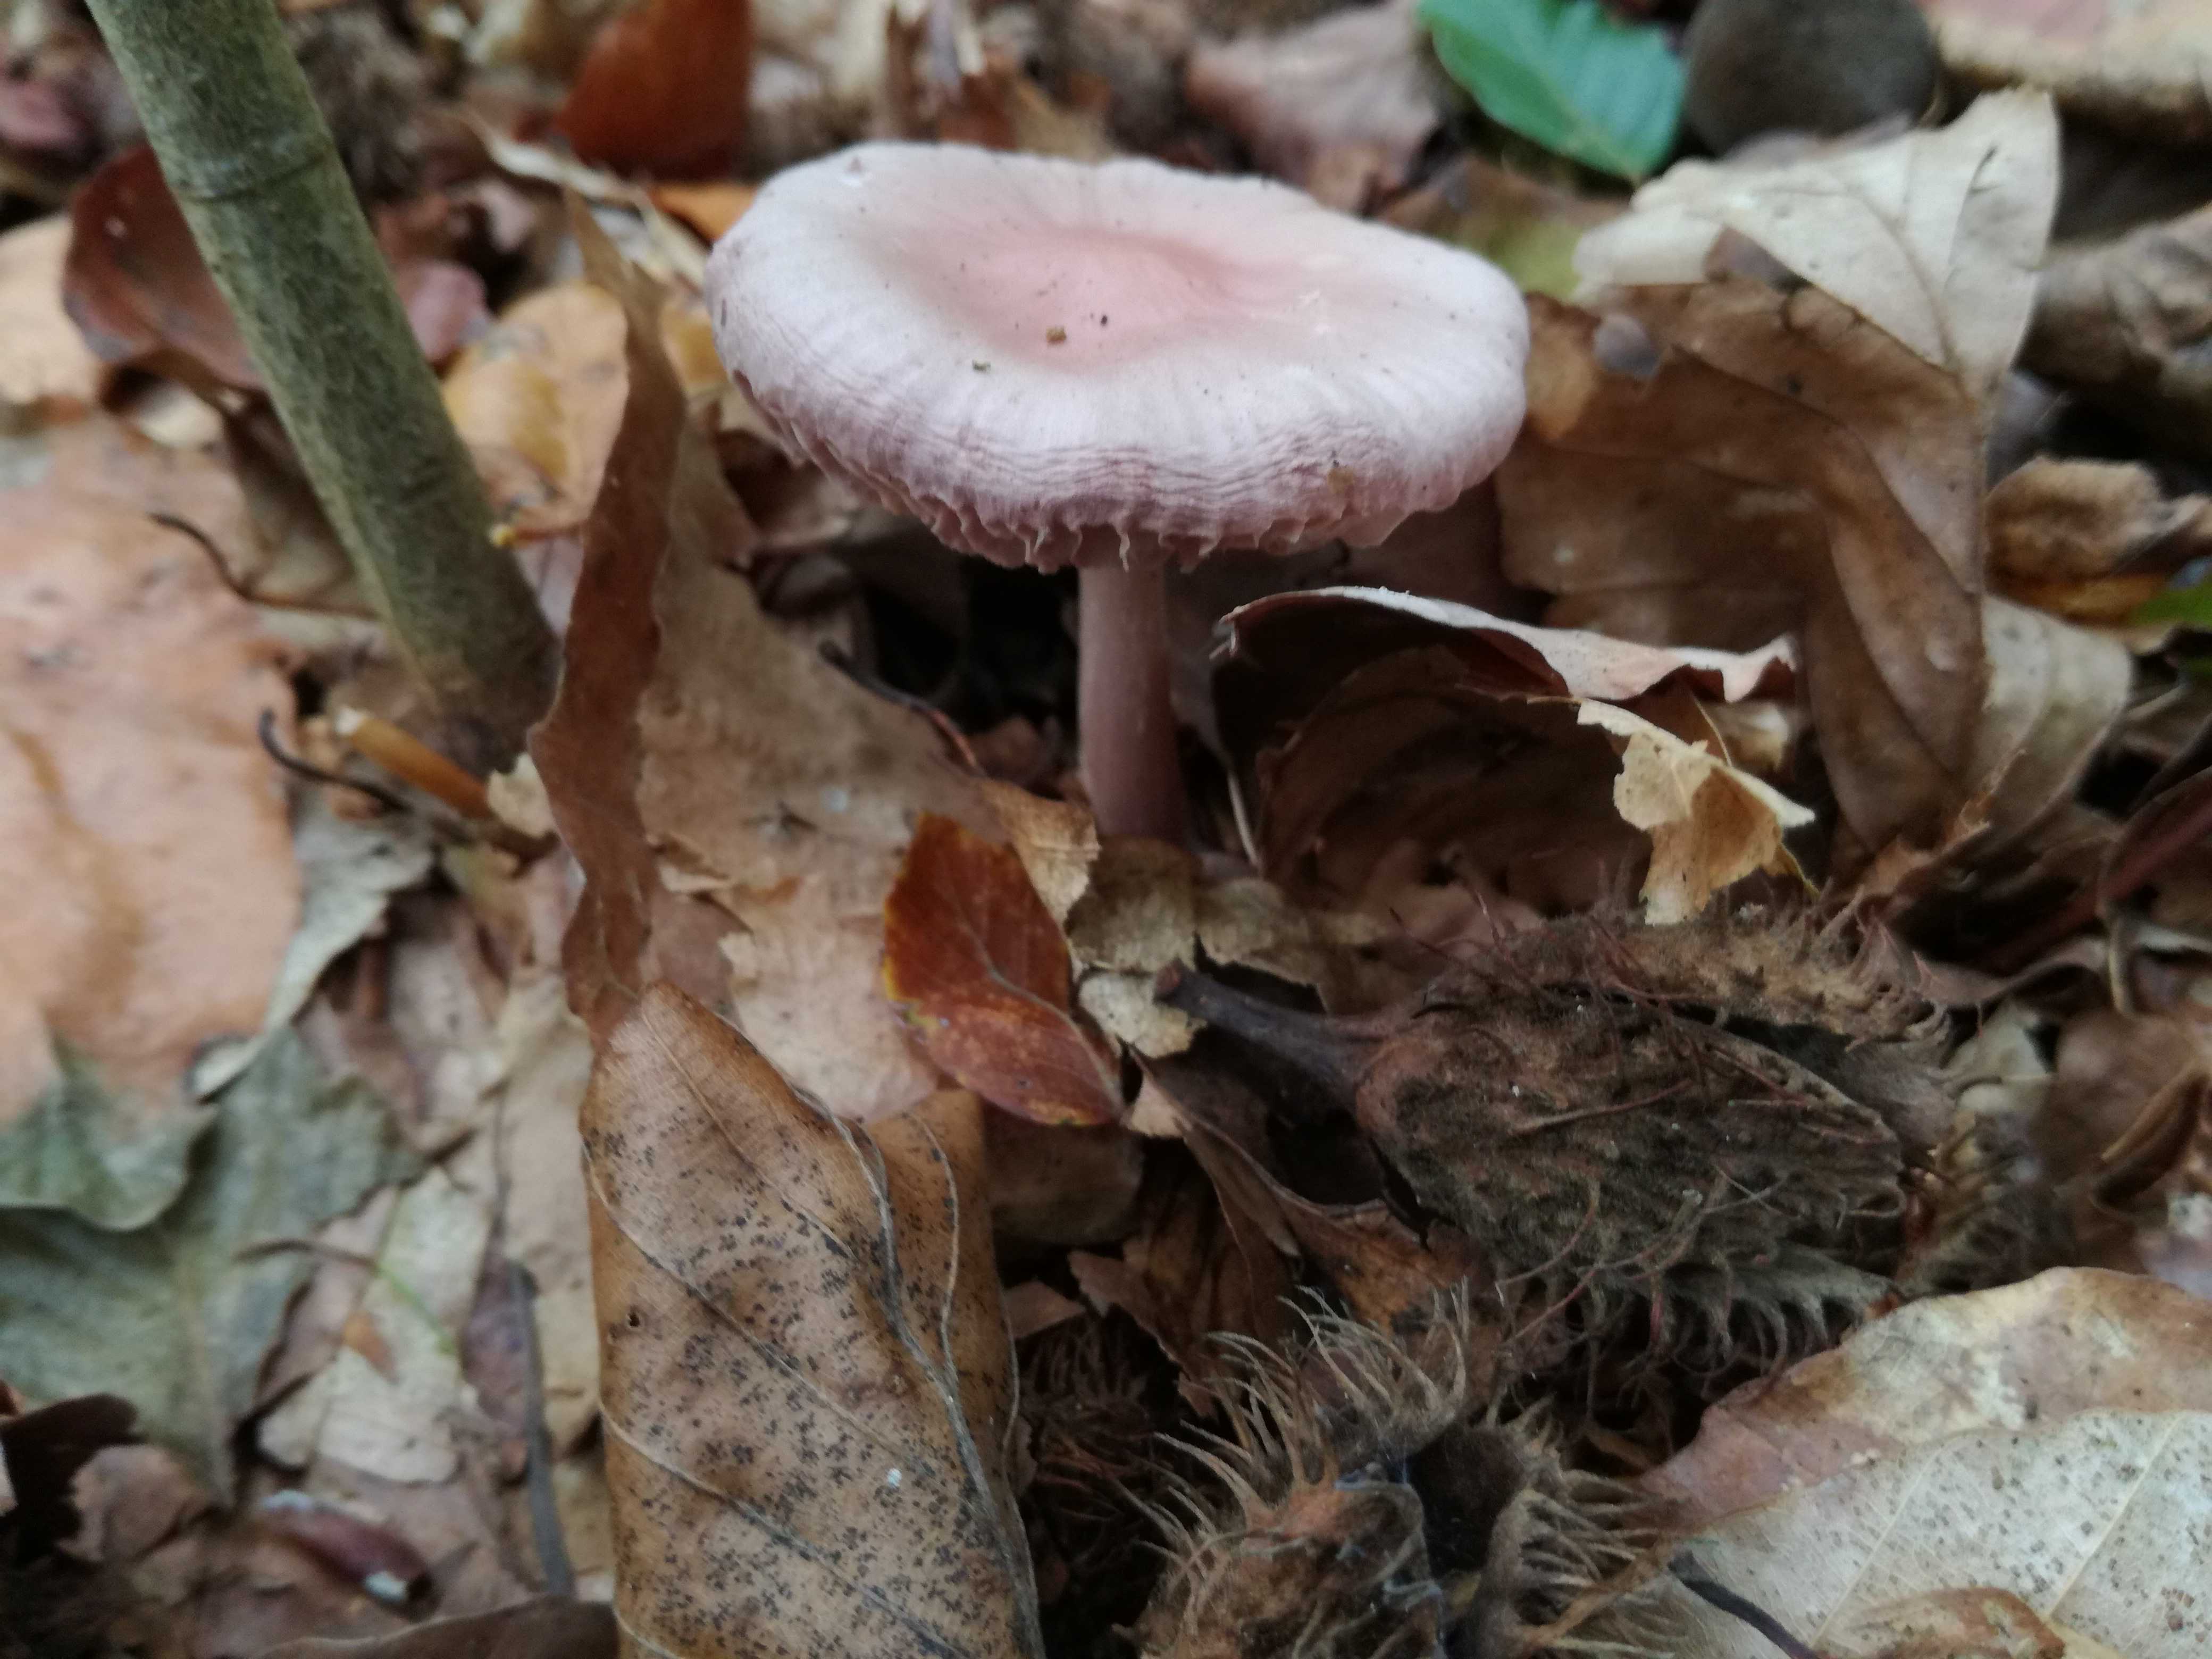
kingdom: Fungi
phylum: Basidiomycota
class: Agaricomycetes
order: Agaricales
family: Mycenaceae
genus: Mycena
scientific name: Mycena rosea
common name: rosa huesvamp
